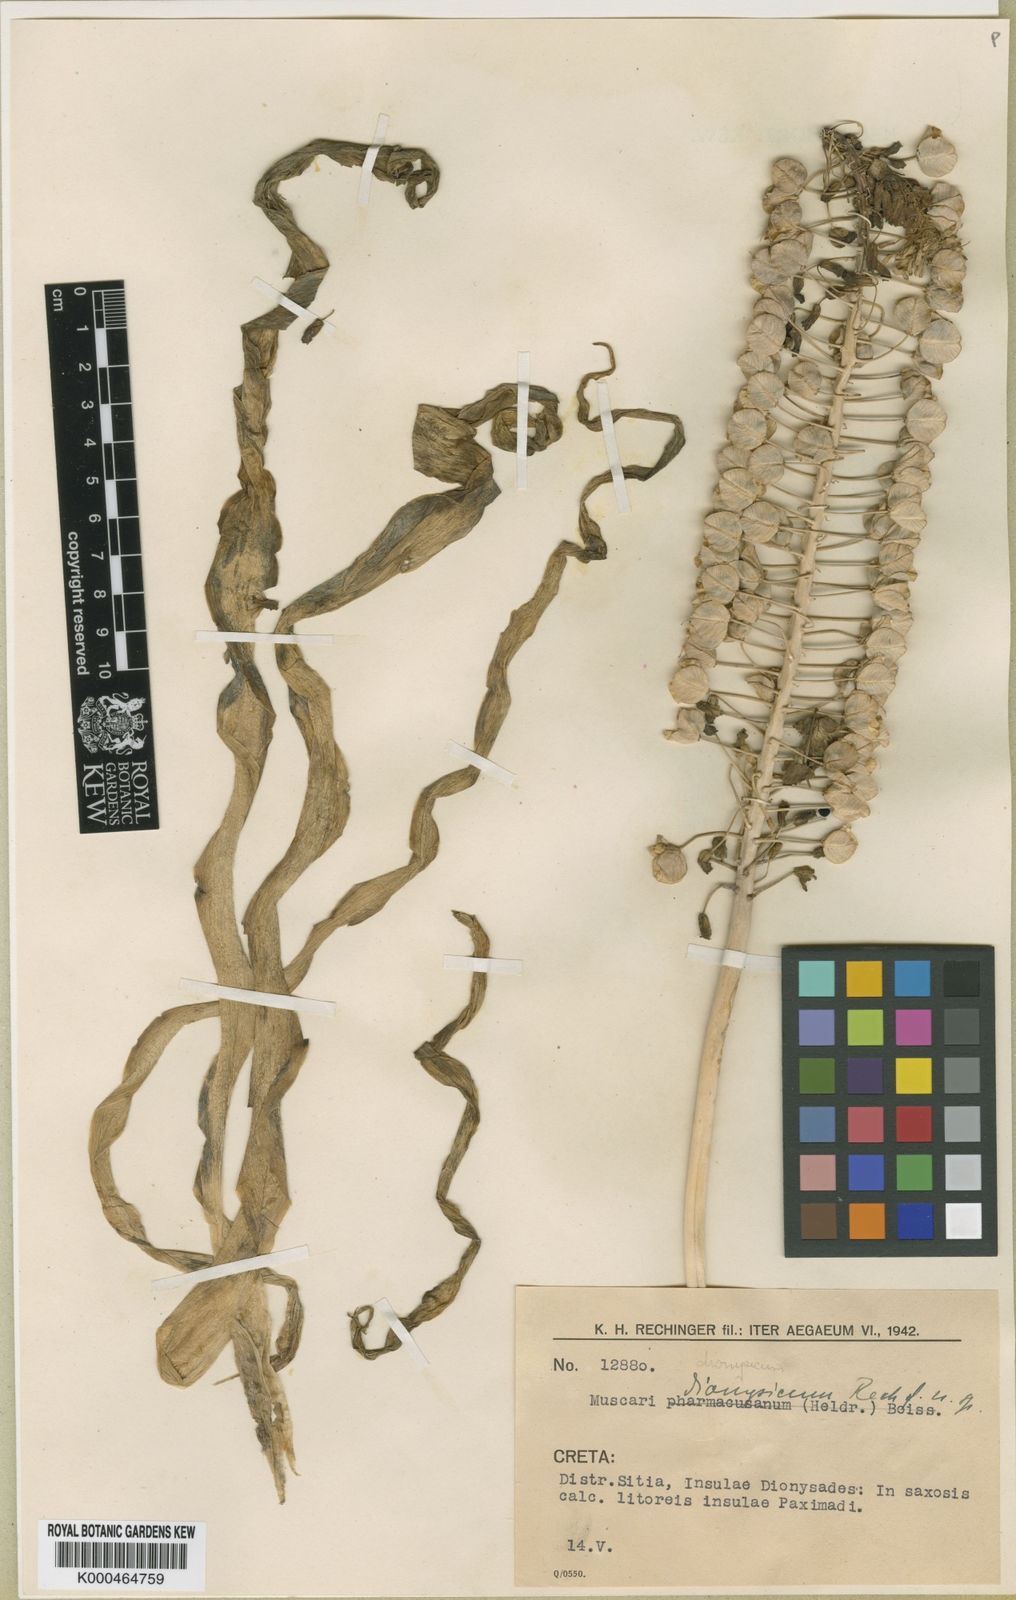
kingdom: Animalia
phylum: Mollusca
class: Cephalopoda
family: Neocomitidae
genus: Leopoldia
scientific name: Leopoldia
